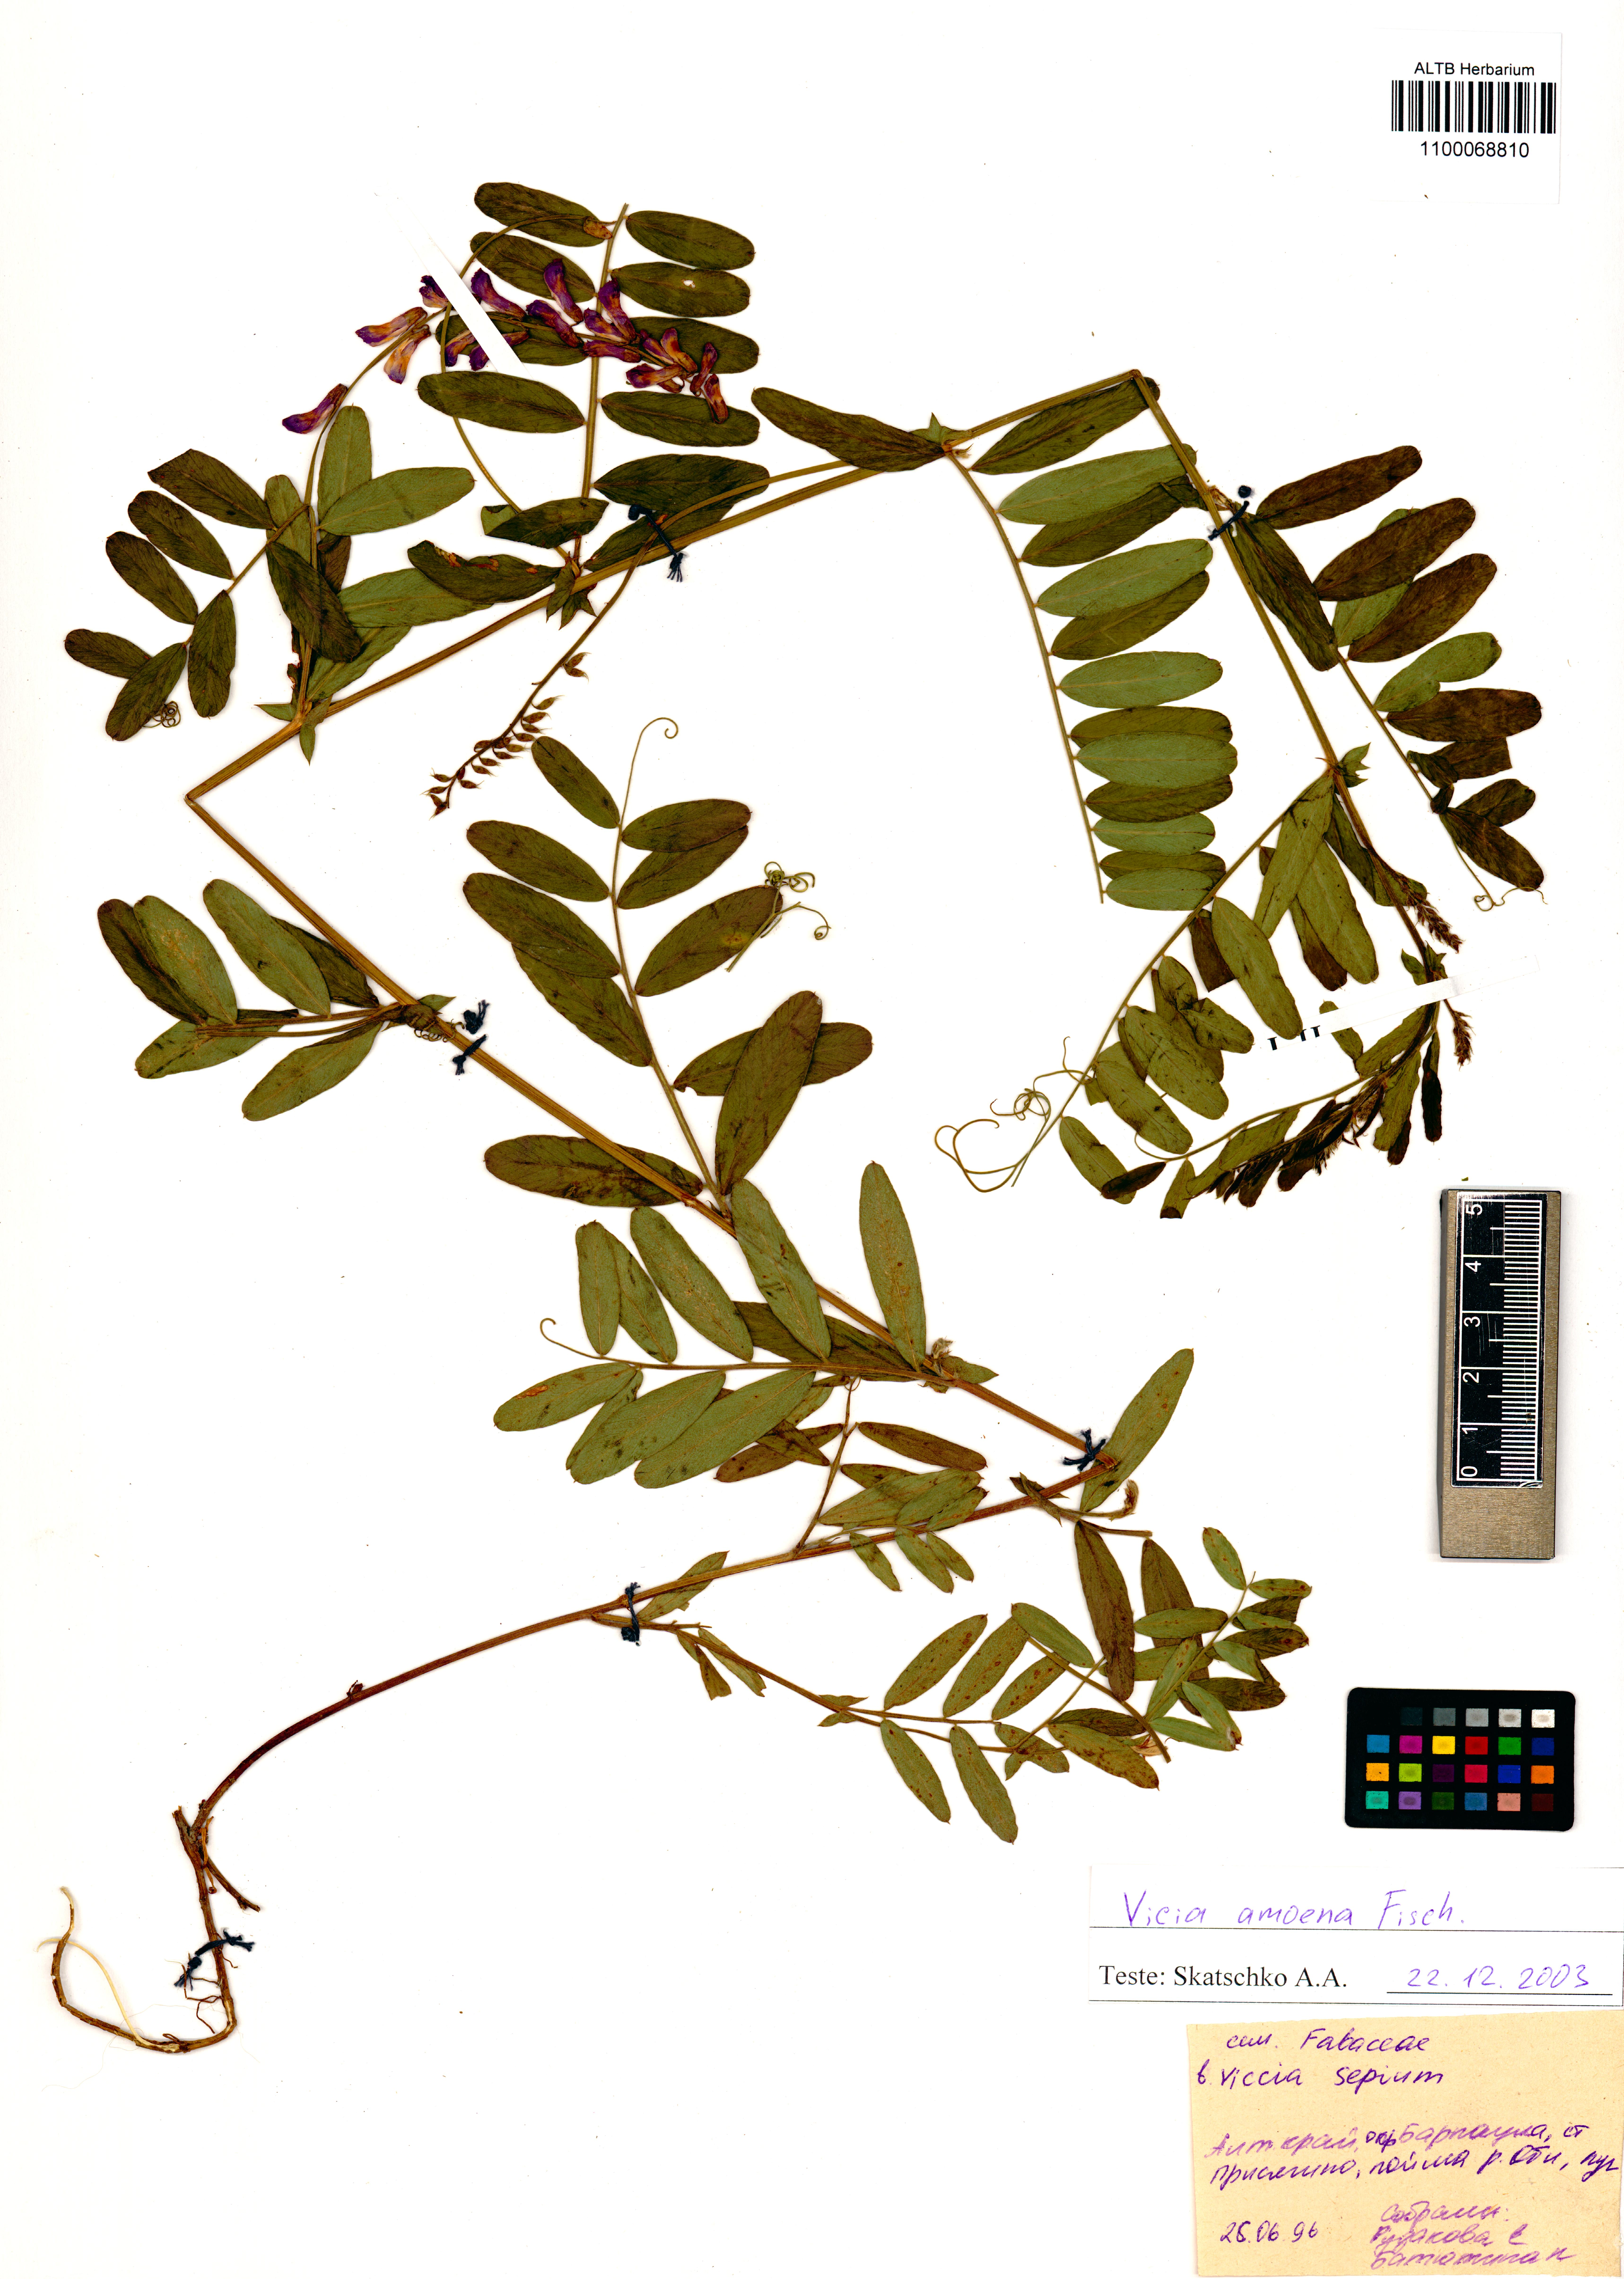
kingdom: Plantae
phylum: Tracheophyta
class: Magnoliopsida
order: Fabales
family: Fabaceae
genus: Vicia
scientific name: Vicia amoena
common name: Cheder ebs
